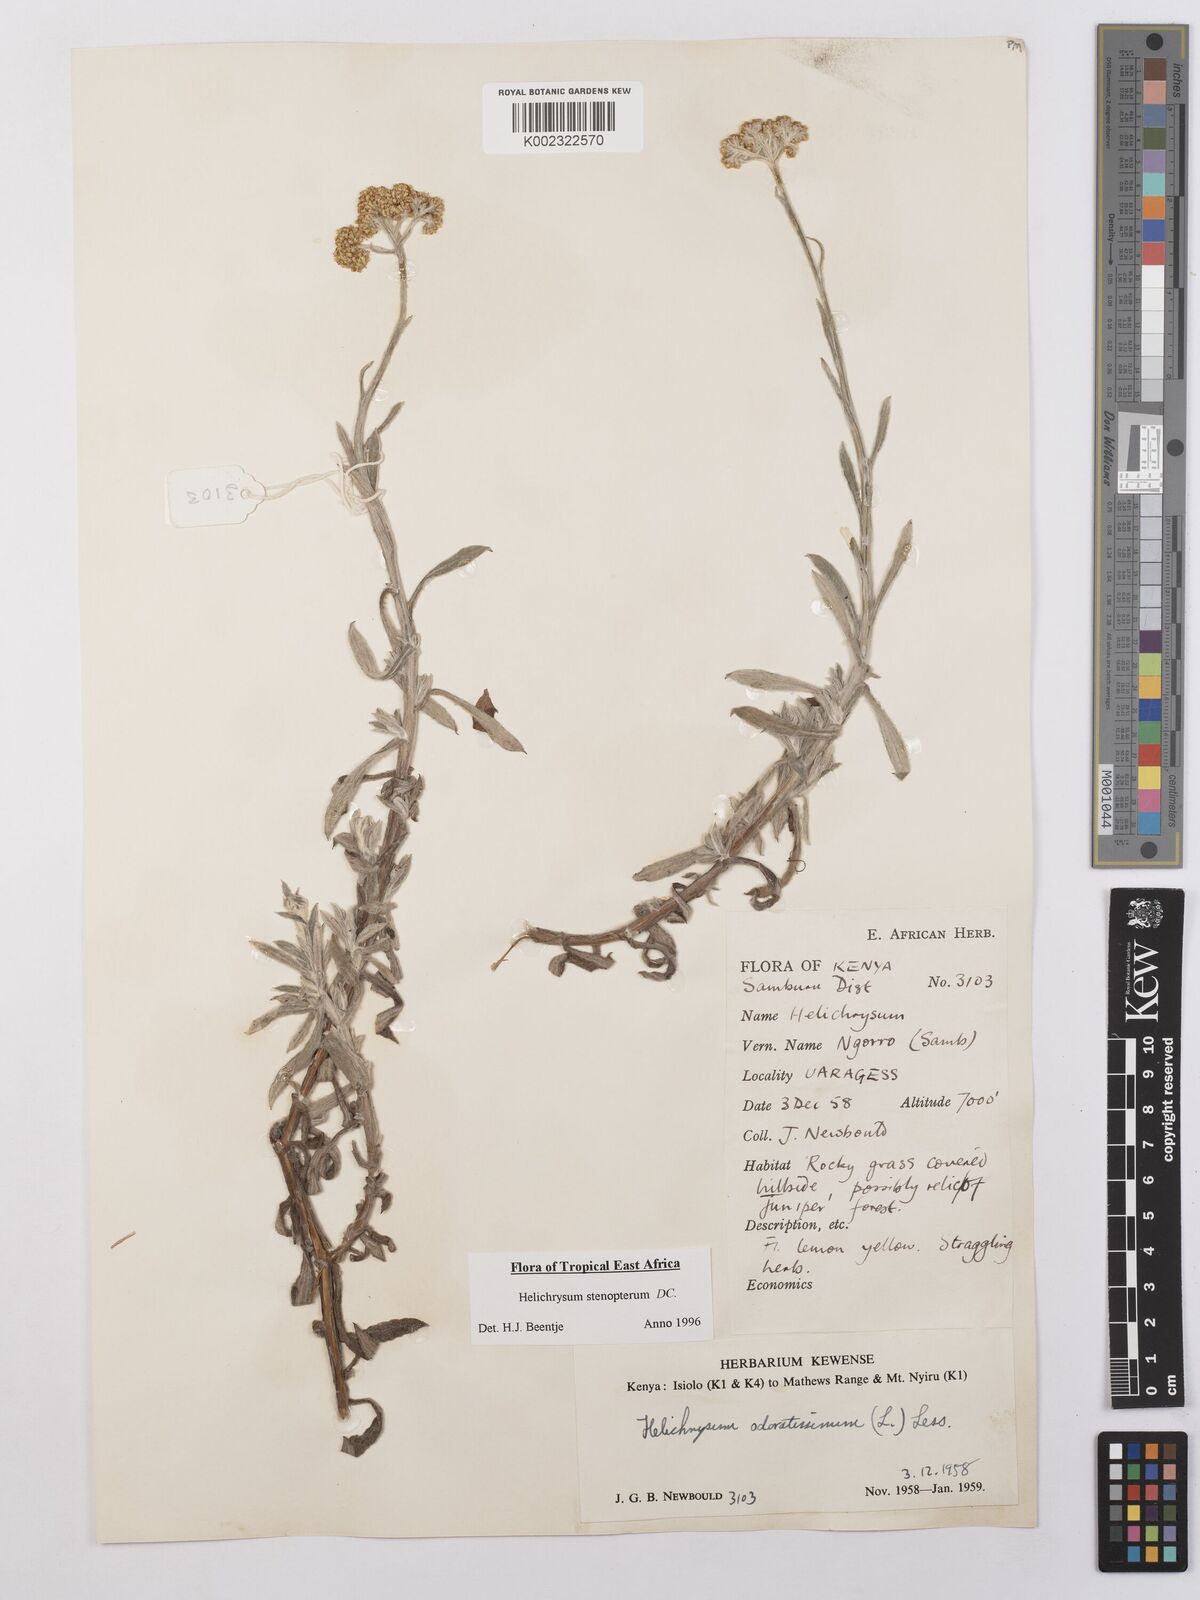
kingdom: Plantae
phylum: Tracheophyta
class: Magnoliopsida
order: Asterales
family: Asteraceae
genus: Helichrysum
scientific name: Helichrysum stenopterum
